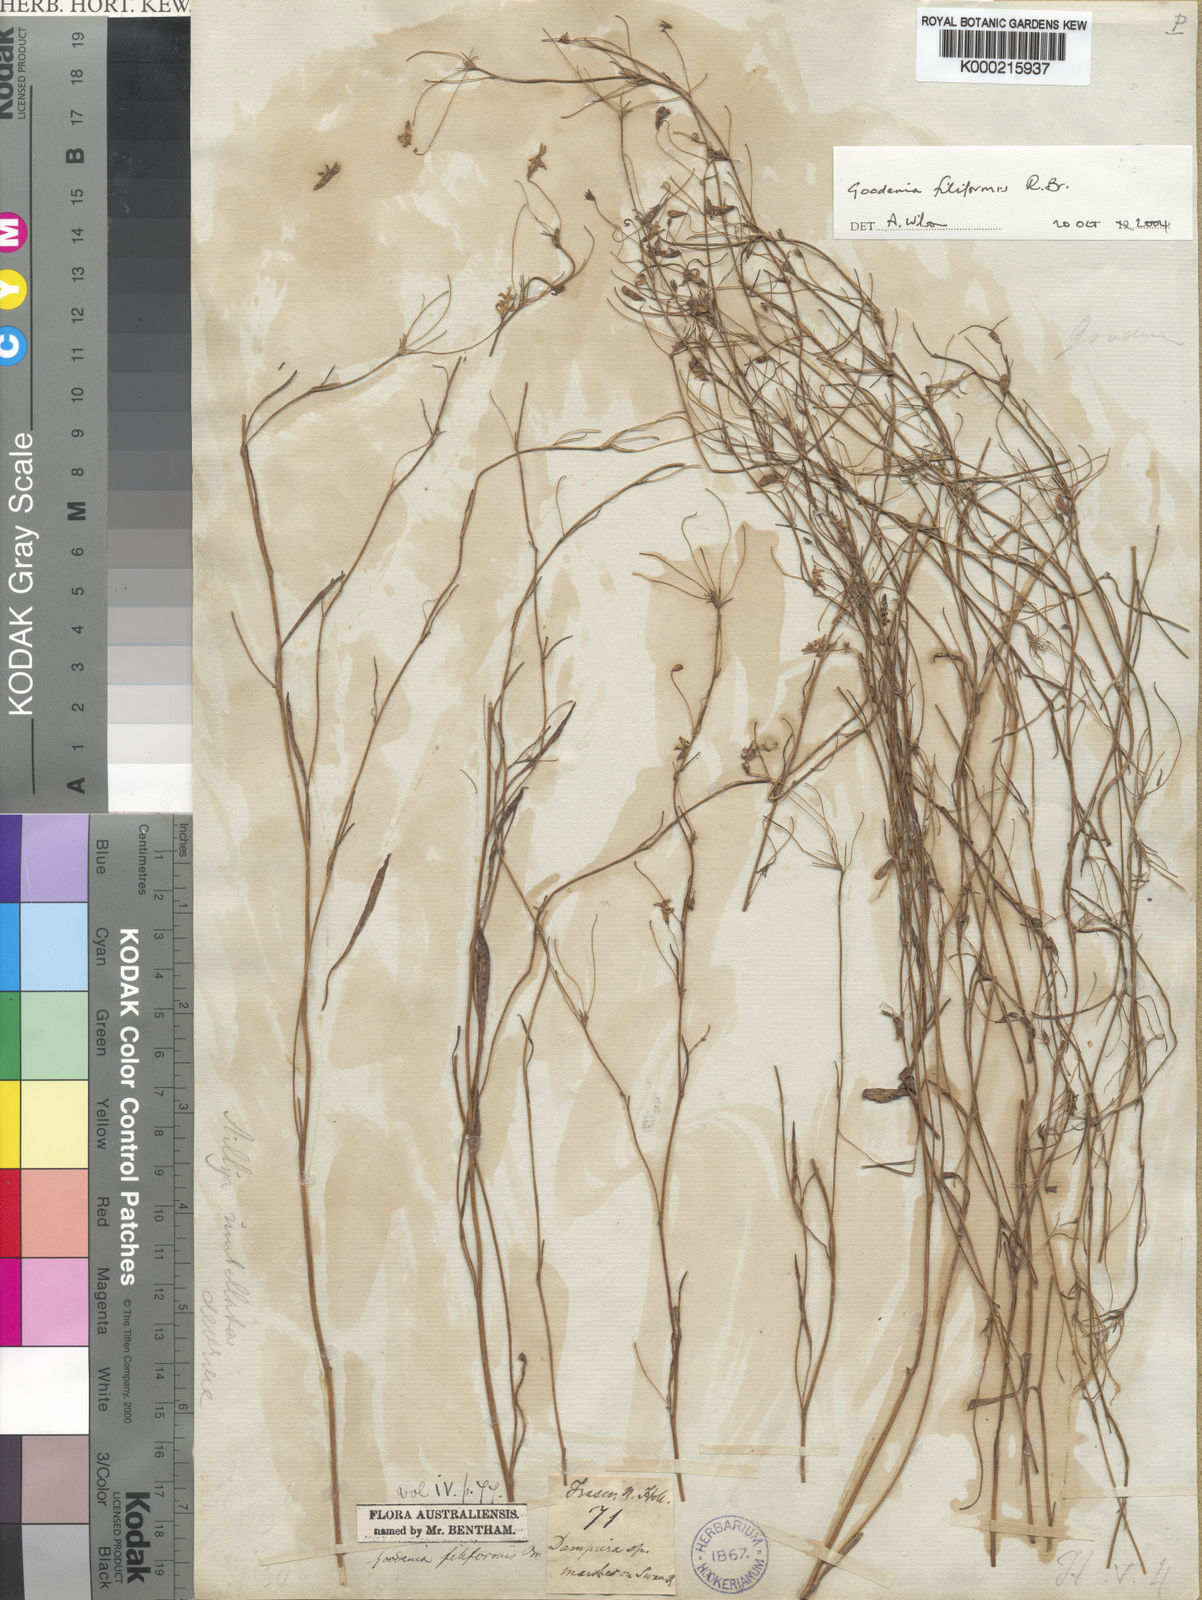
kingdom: Plantae
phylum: Tracheophyta
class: Magnoliopsida
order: Asterales
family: Goodeniaceae
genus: Goodenia
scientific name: Goodenia filiformis
